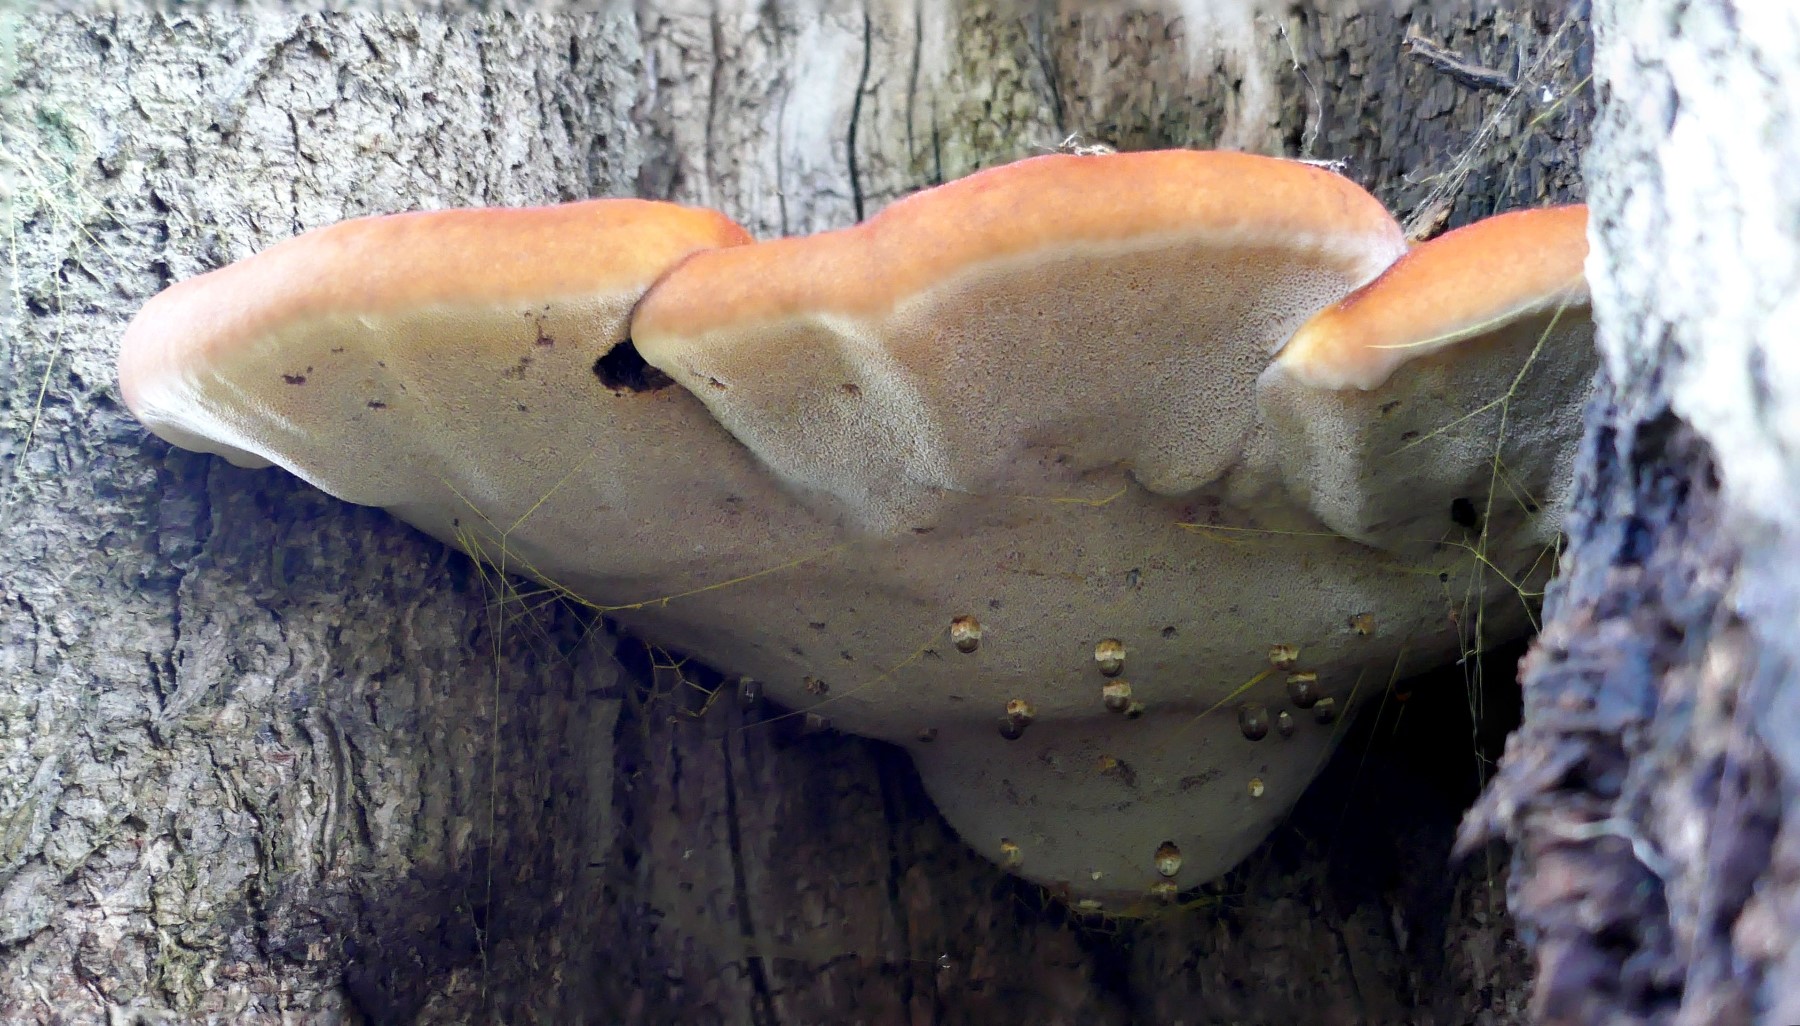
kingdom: Fungi
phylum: Basidiomycota
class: Agaricomycetes
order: Hymenochaetales
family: Hymenochaetaceae
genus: Inonotus
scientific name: Inonotus hispidus
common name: børstehåret spejlporesvamp
